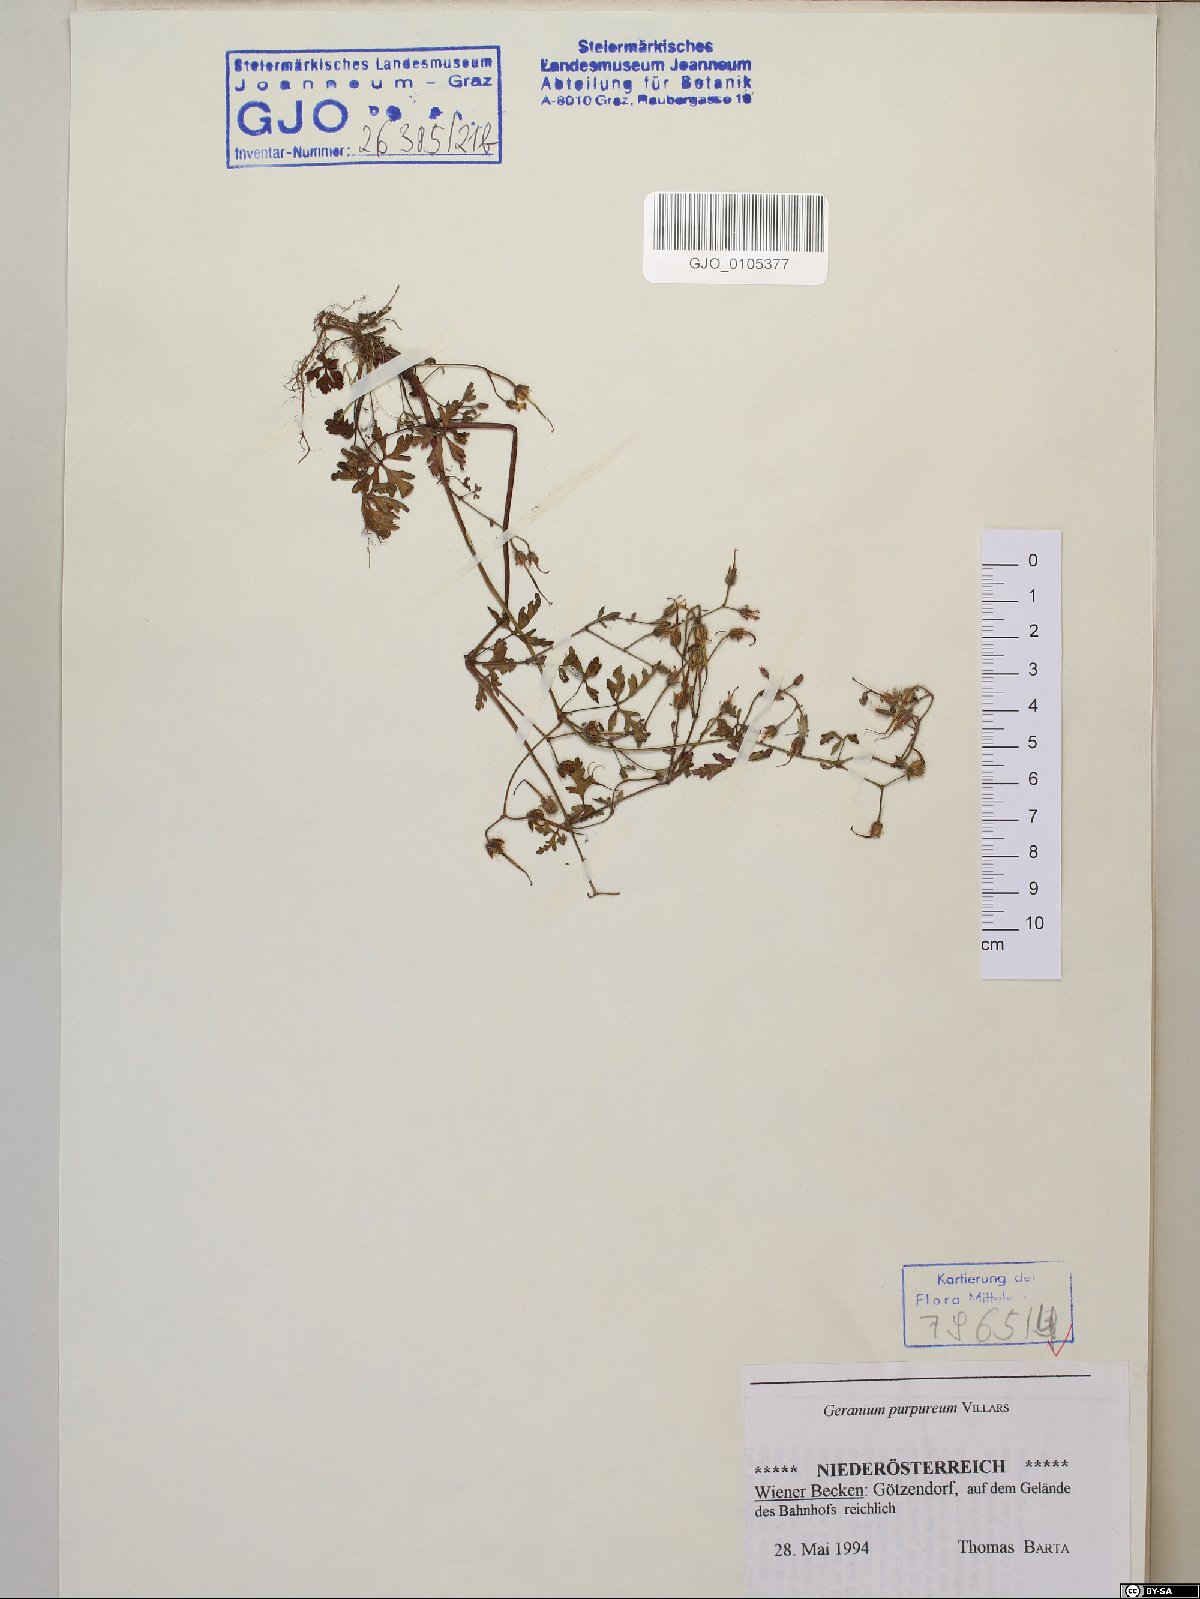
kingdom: Plantae
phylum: Tracheophyta
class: Magnoliopsida
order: Geraniales
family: Geraniaceae
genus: Geranium
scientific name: Geranium purpureum
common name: Little-robin
